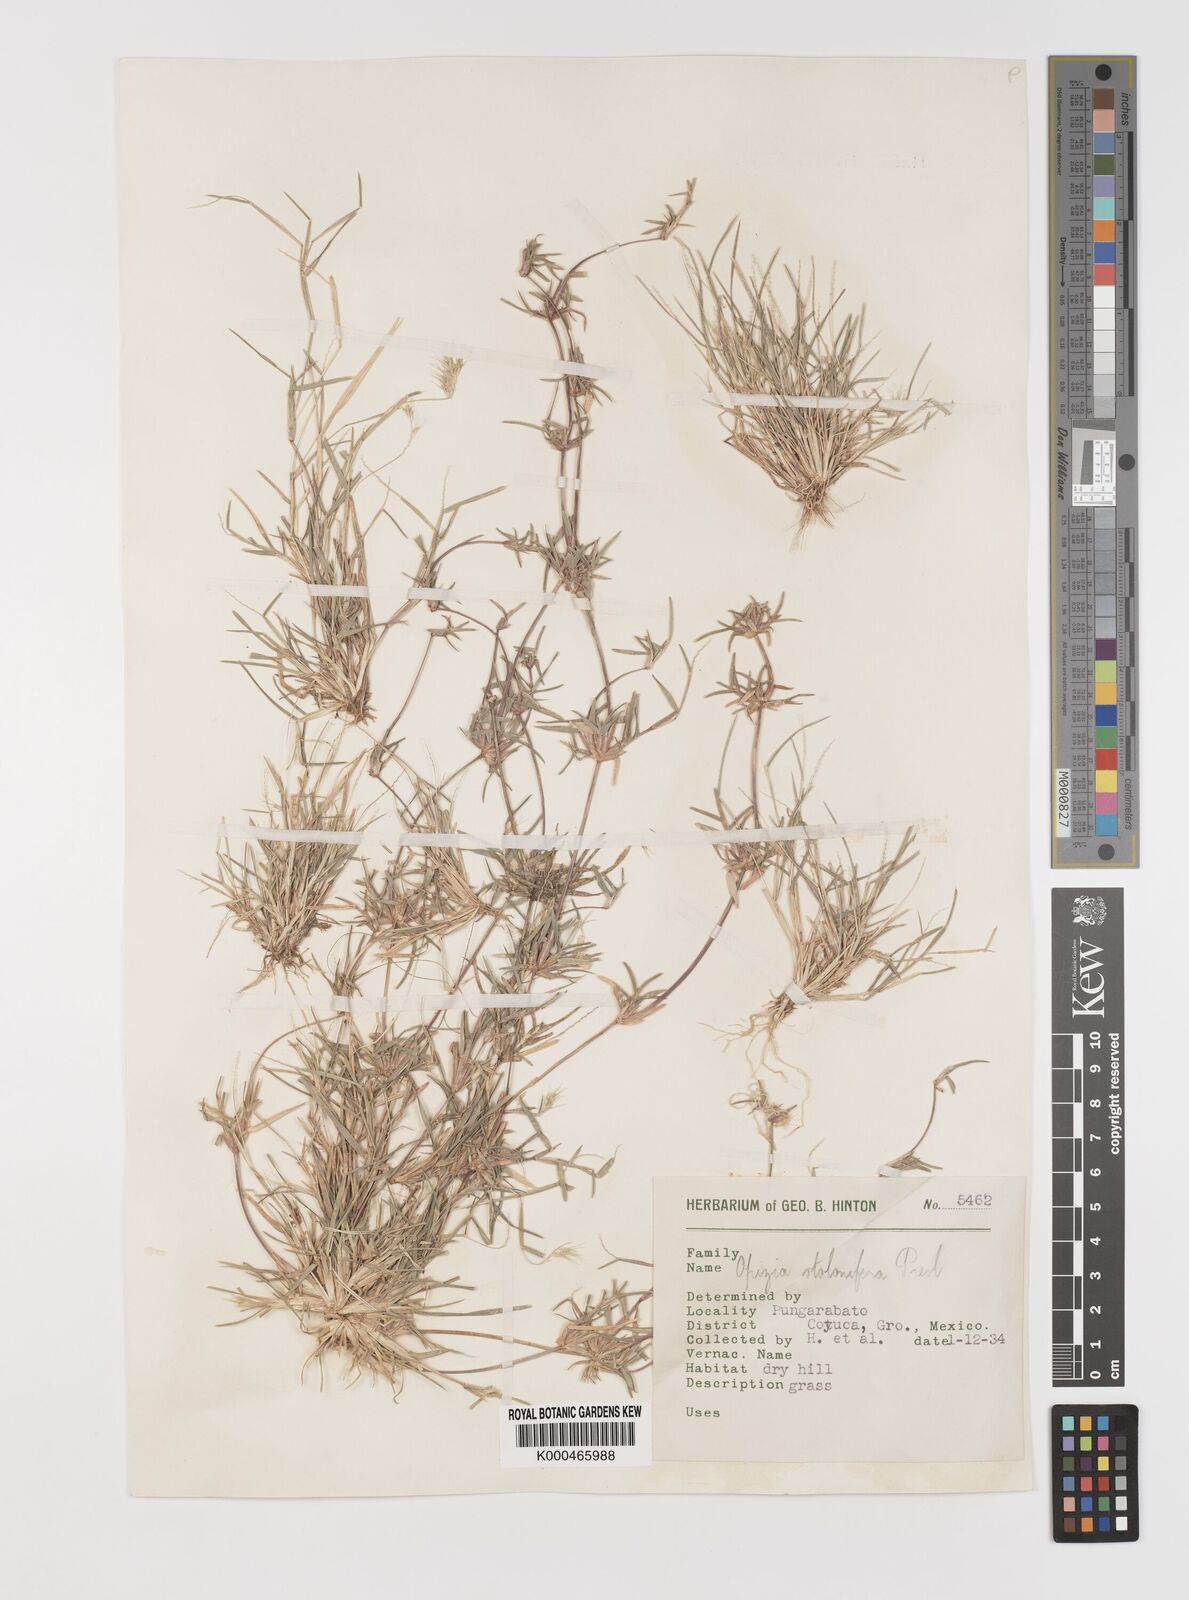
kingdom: Plantae
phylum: Tracheophyta
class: Liliopsida
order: Poales
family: Poaceae
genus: Bouteloua
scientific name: Bouteloua dimorpha
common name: Acapulco grass
